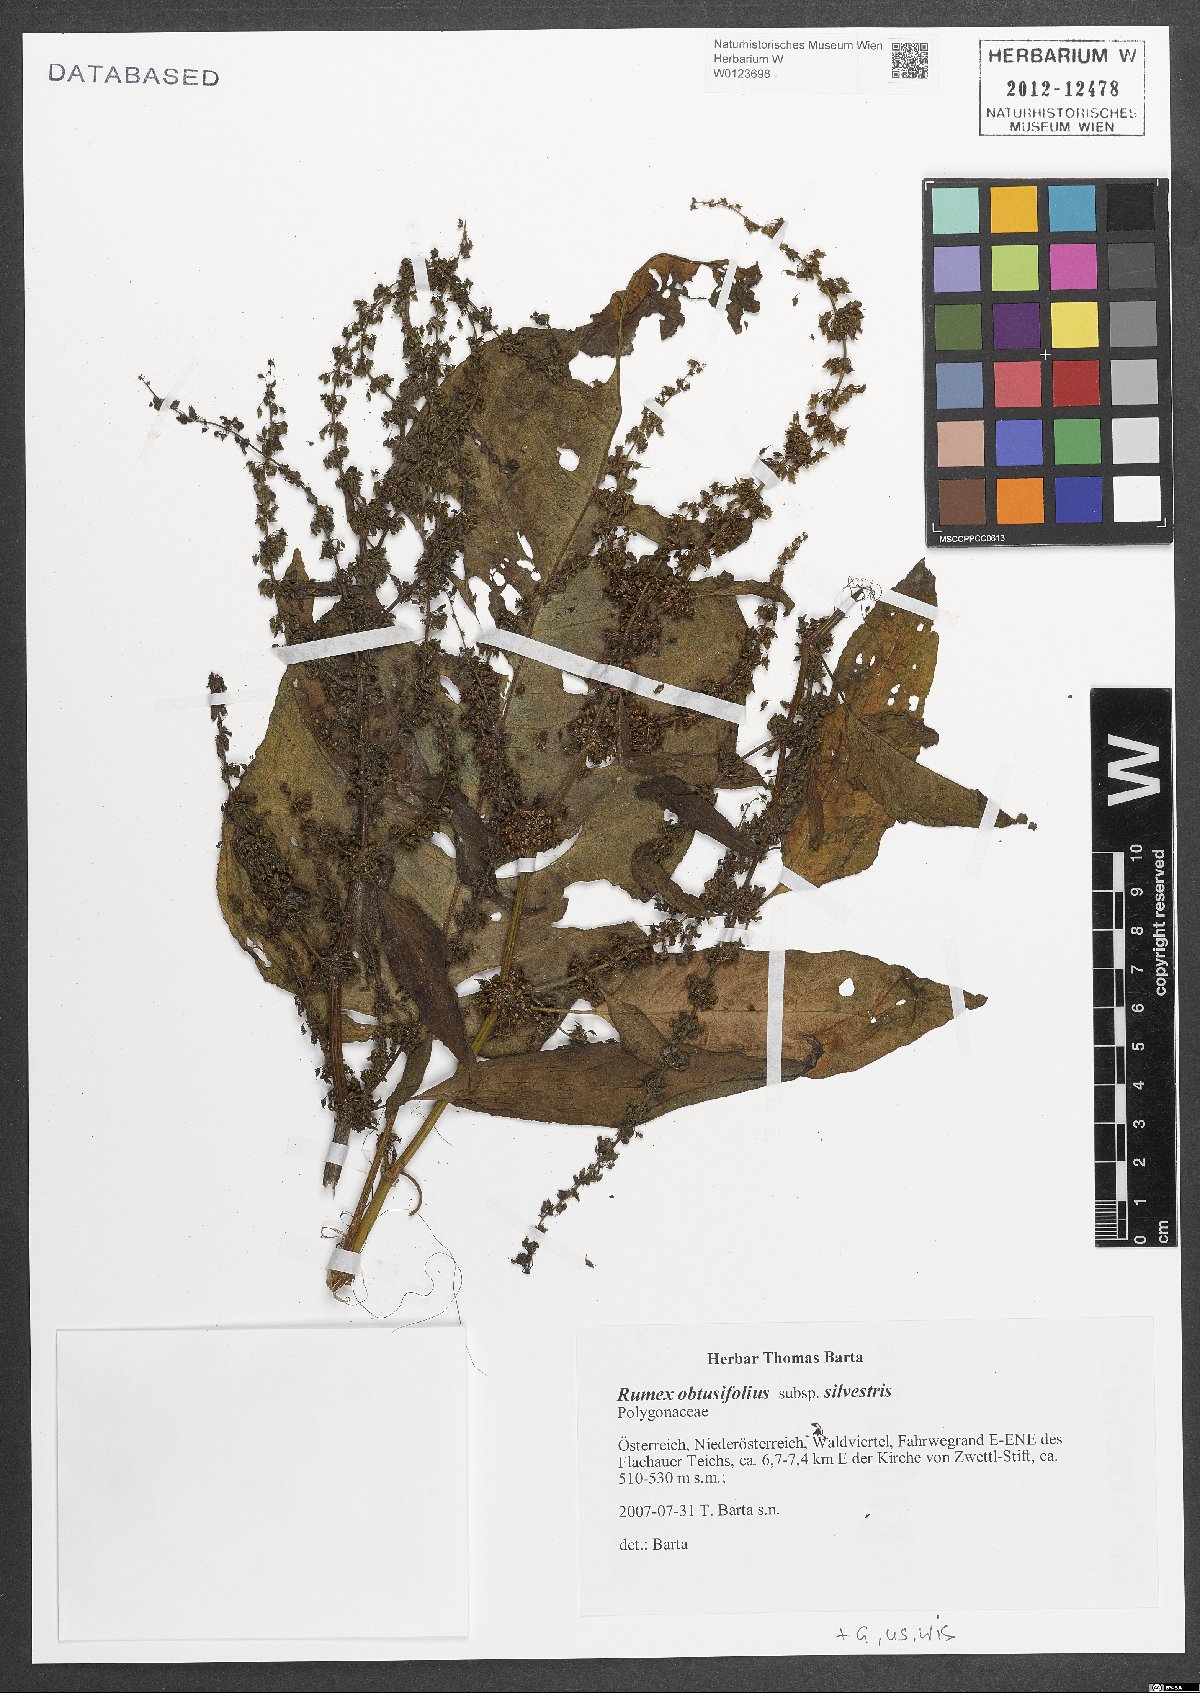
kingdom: Plantae
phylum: Tracheophyta
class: Magnoliopsida
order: Caryophyllales
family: Polygonaceae
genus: Rumex
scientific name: Rumex obtusifolius
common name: Bitter dock
